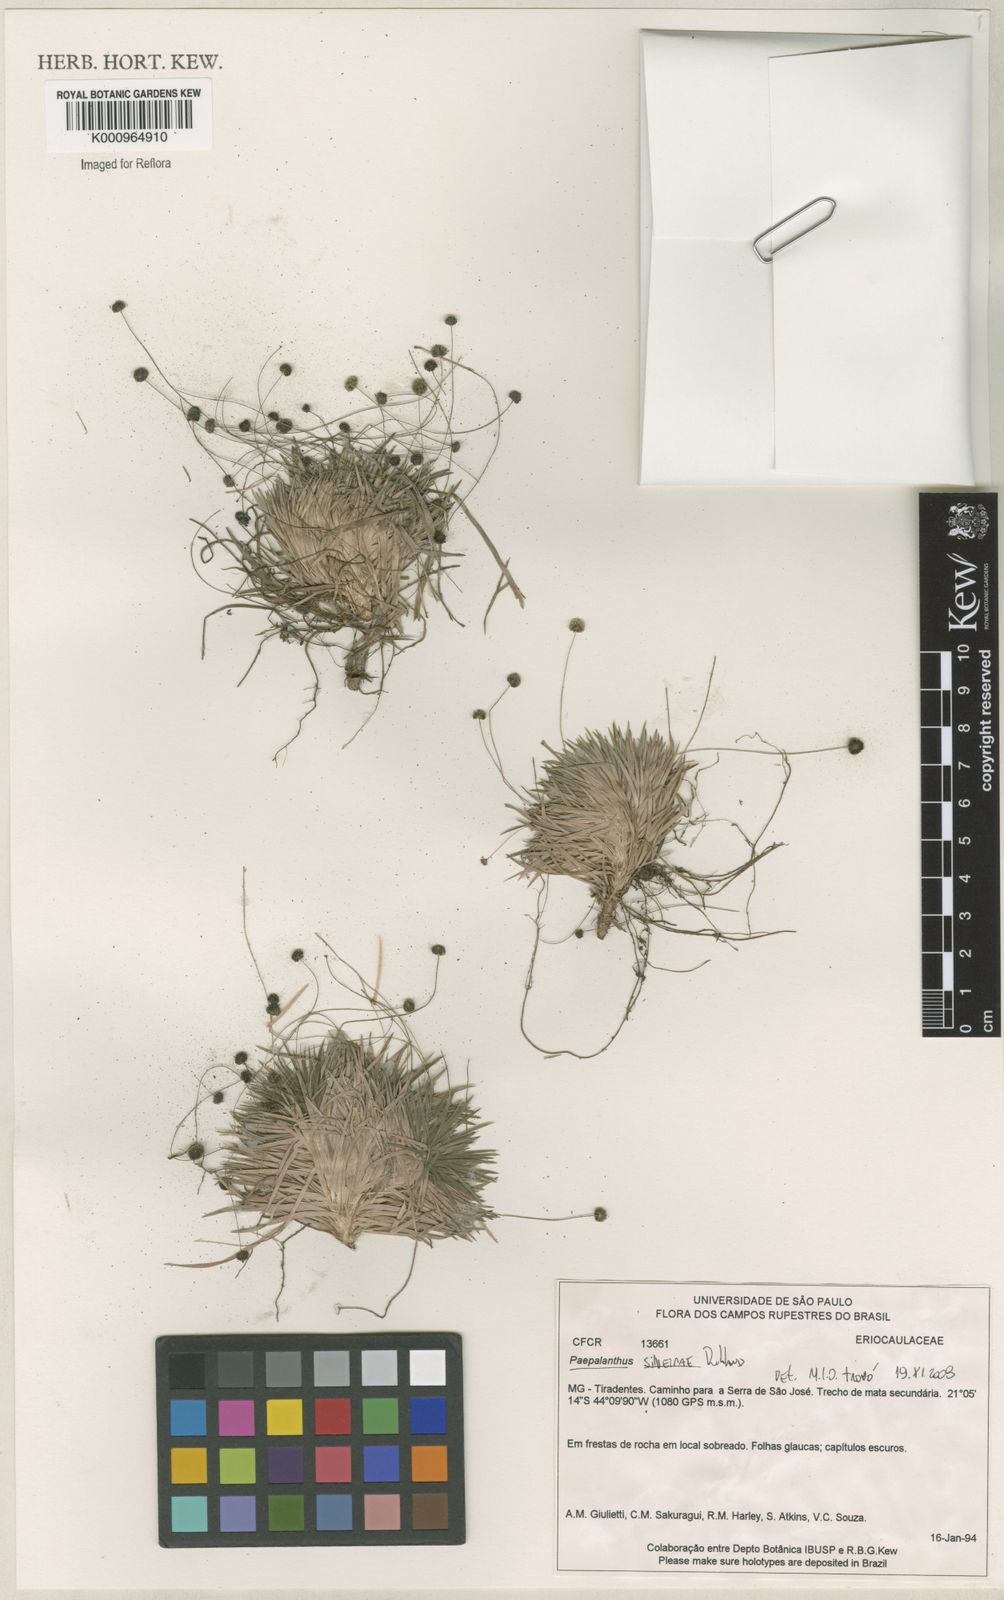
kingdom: Plantae
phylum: Tracheophyta
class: Liliopsida
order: Poales
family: Eriocaulaceae
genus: Paepalanthus
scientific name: Paepalanthus silveirae
